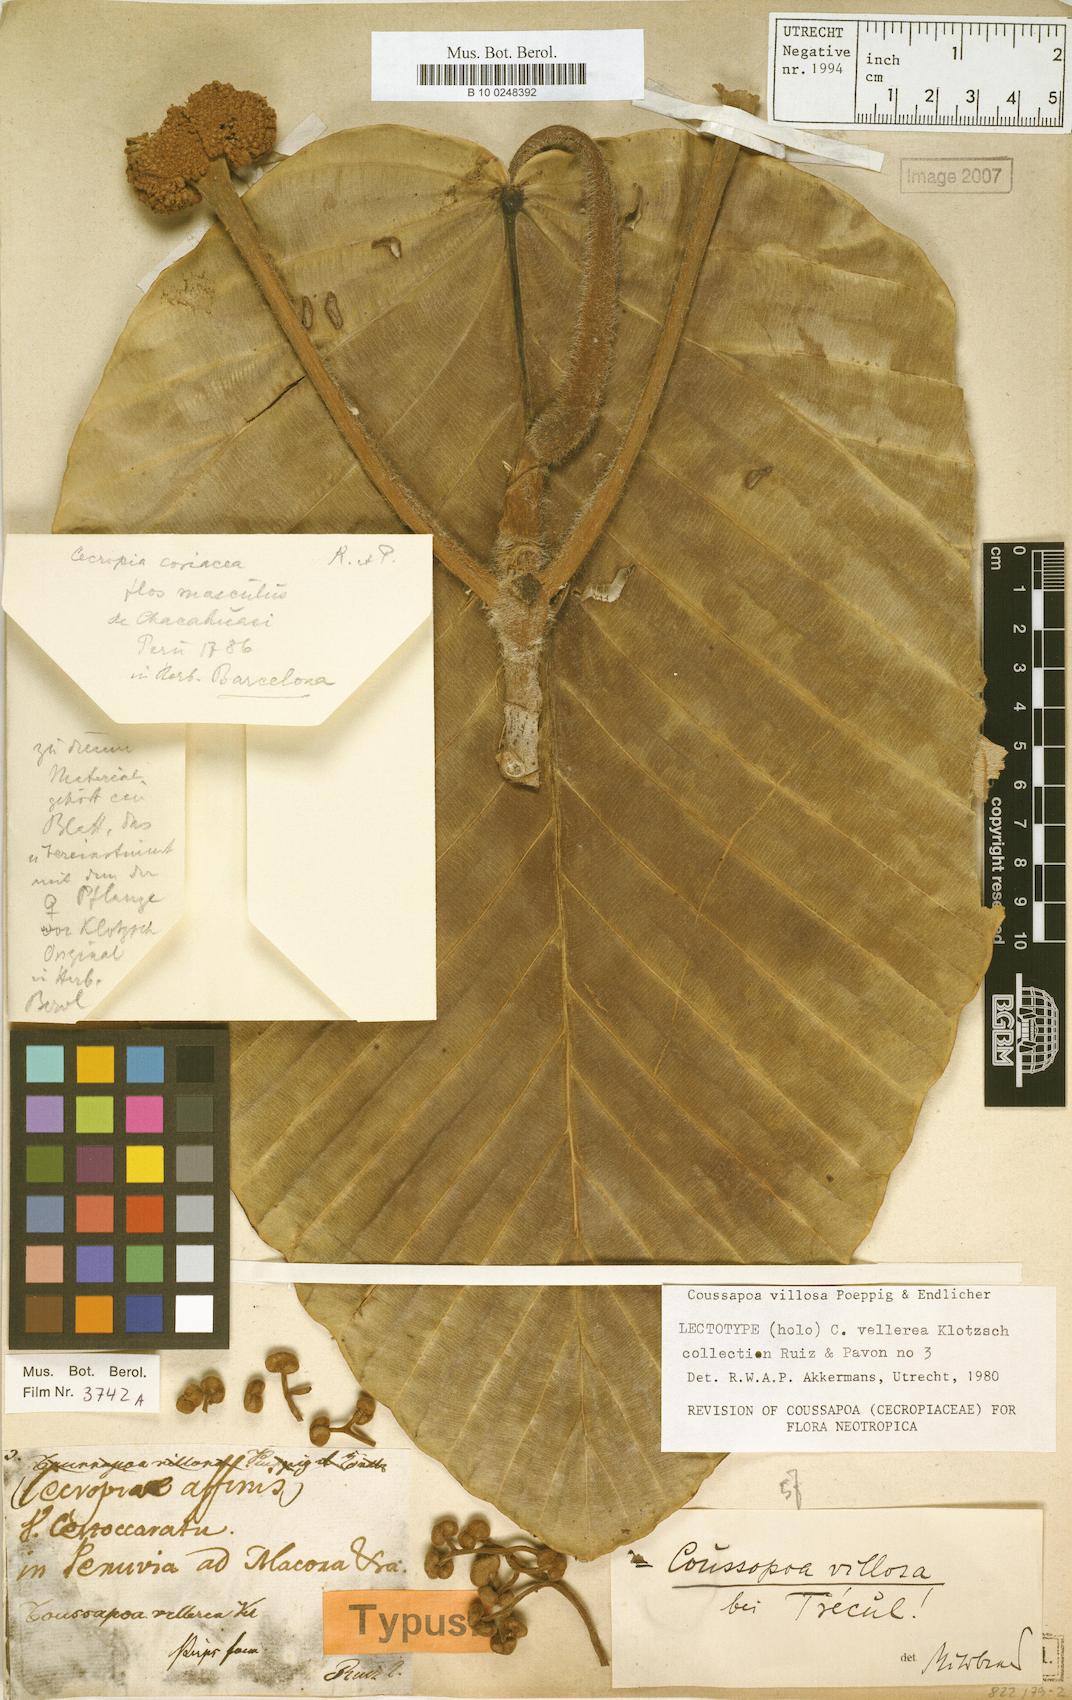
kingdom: Plantae
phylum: Tracheophyta
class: Magnoliopsida
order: Rosales
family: Urticaceae
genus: Coussapoa
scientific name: Coussapoa villosa
